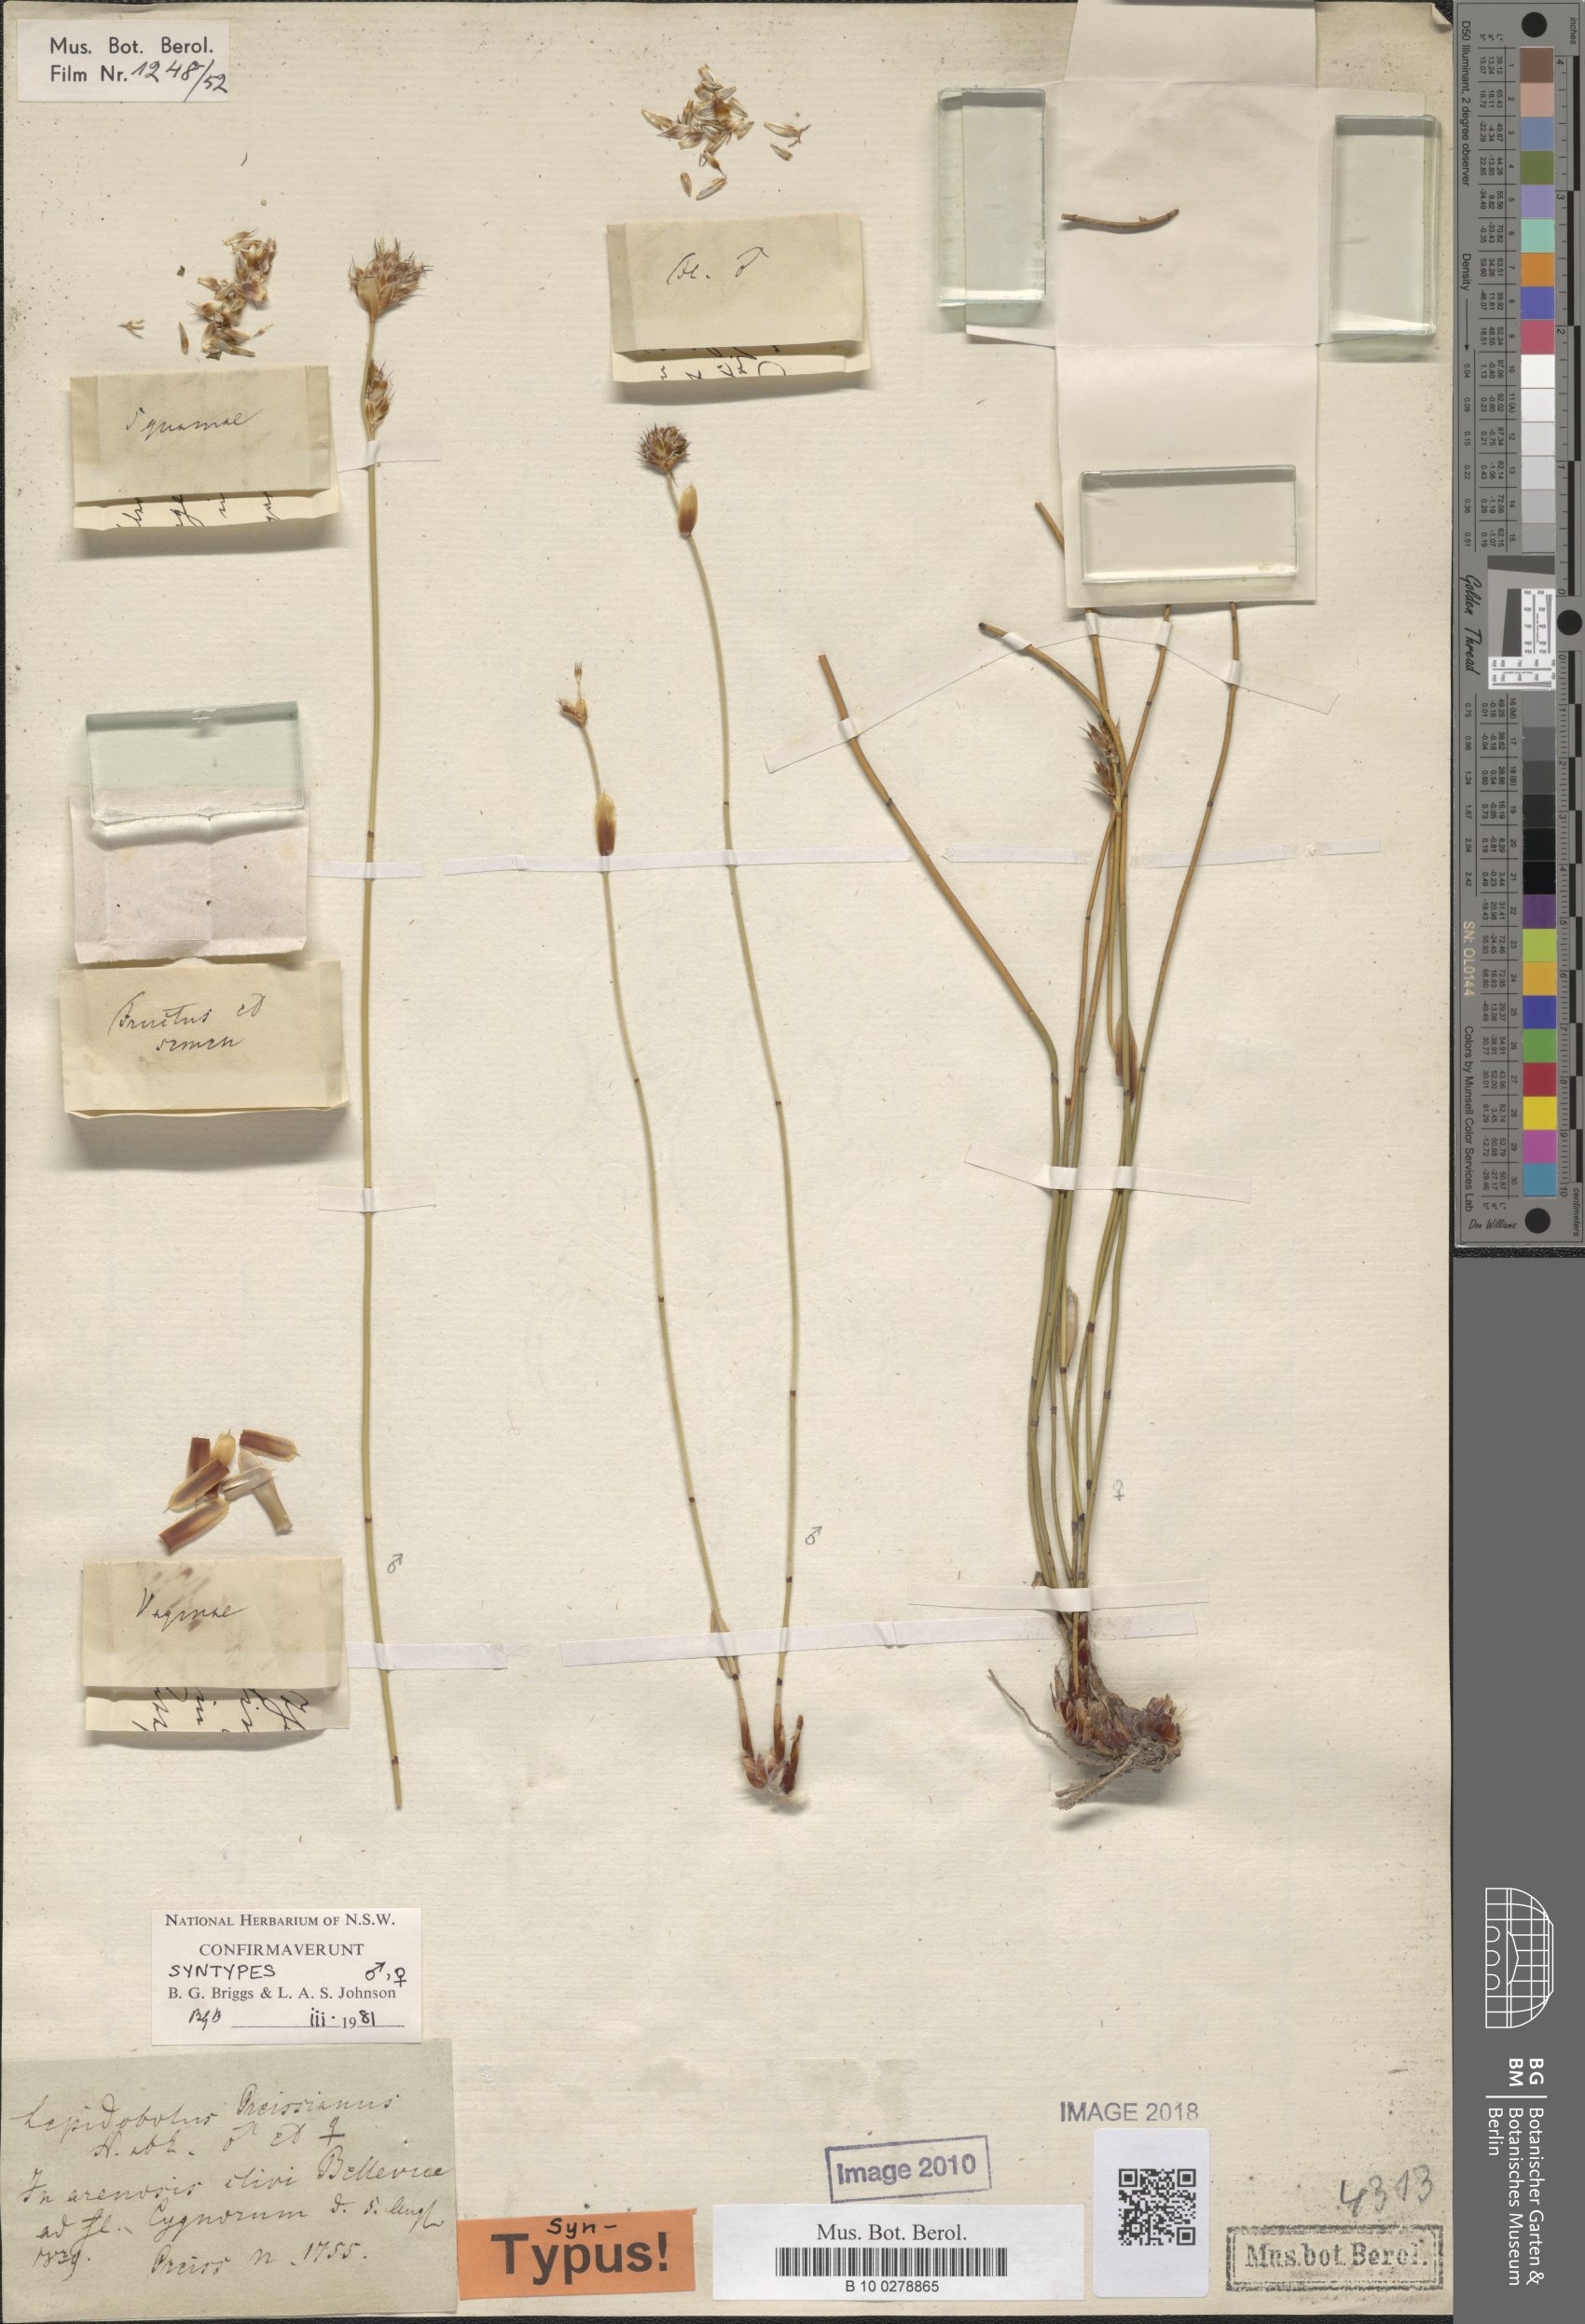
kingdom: Plantae
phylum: Tracheophyta
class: Liliopsida
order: Poales
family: Restionaceae
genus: Lepidobolus
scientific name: Lepidobolus preissianus
